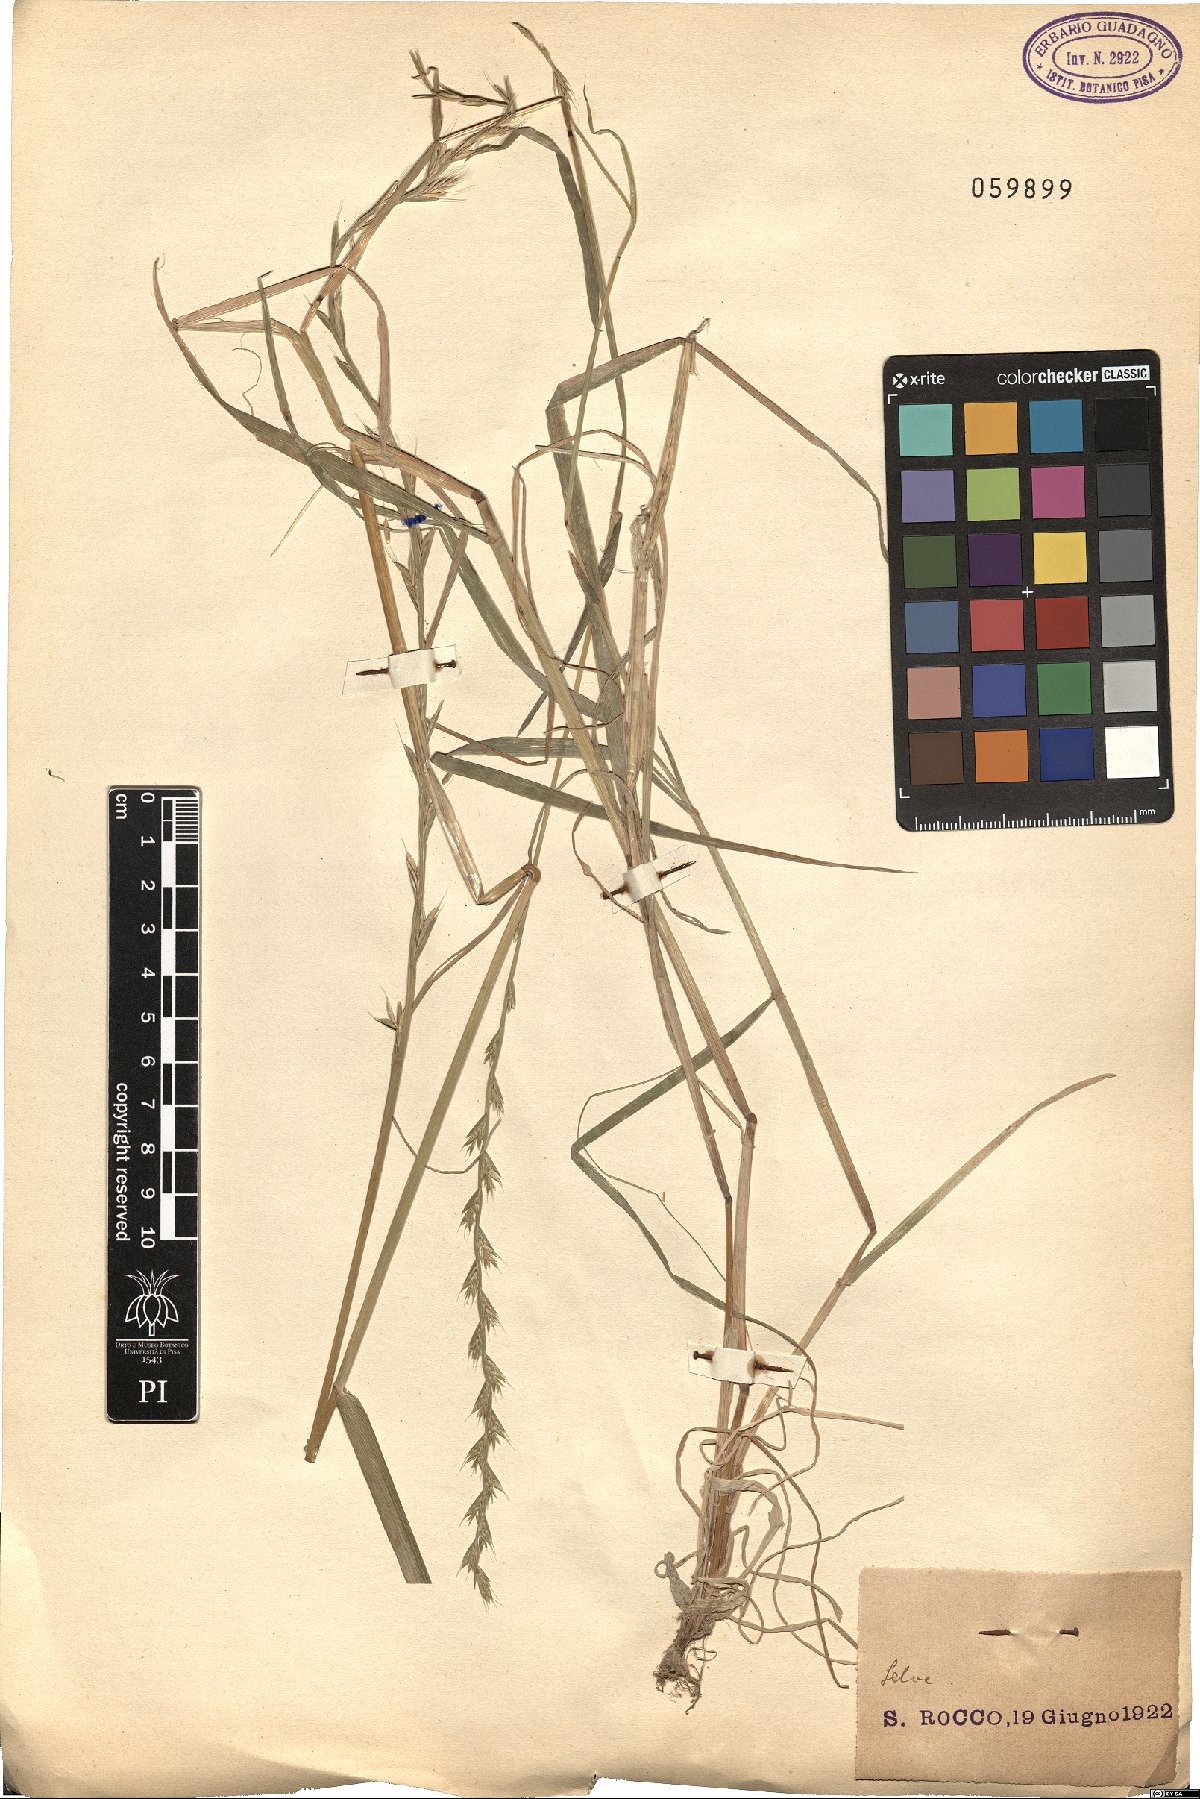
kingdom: Plantae
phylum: Tracheophyta
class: Liliopsida
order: Poales
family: Poaceae
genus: Lolium
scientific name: Lolium
